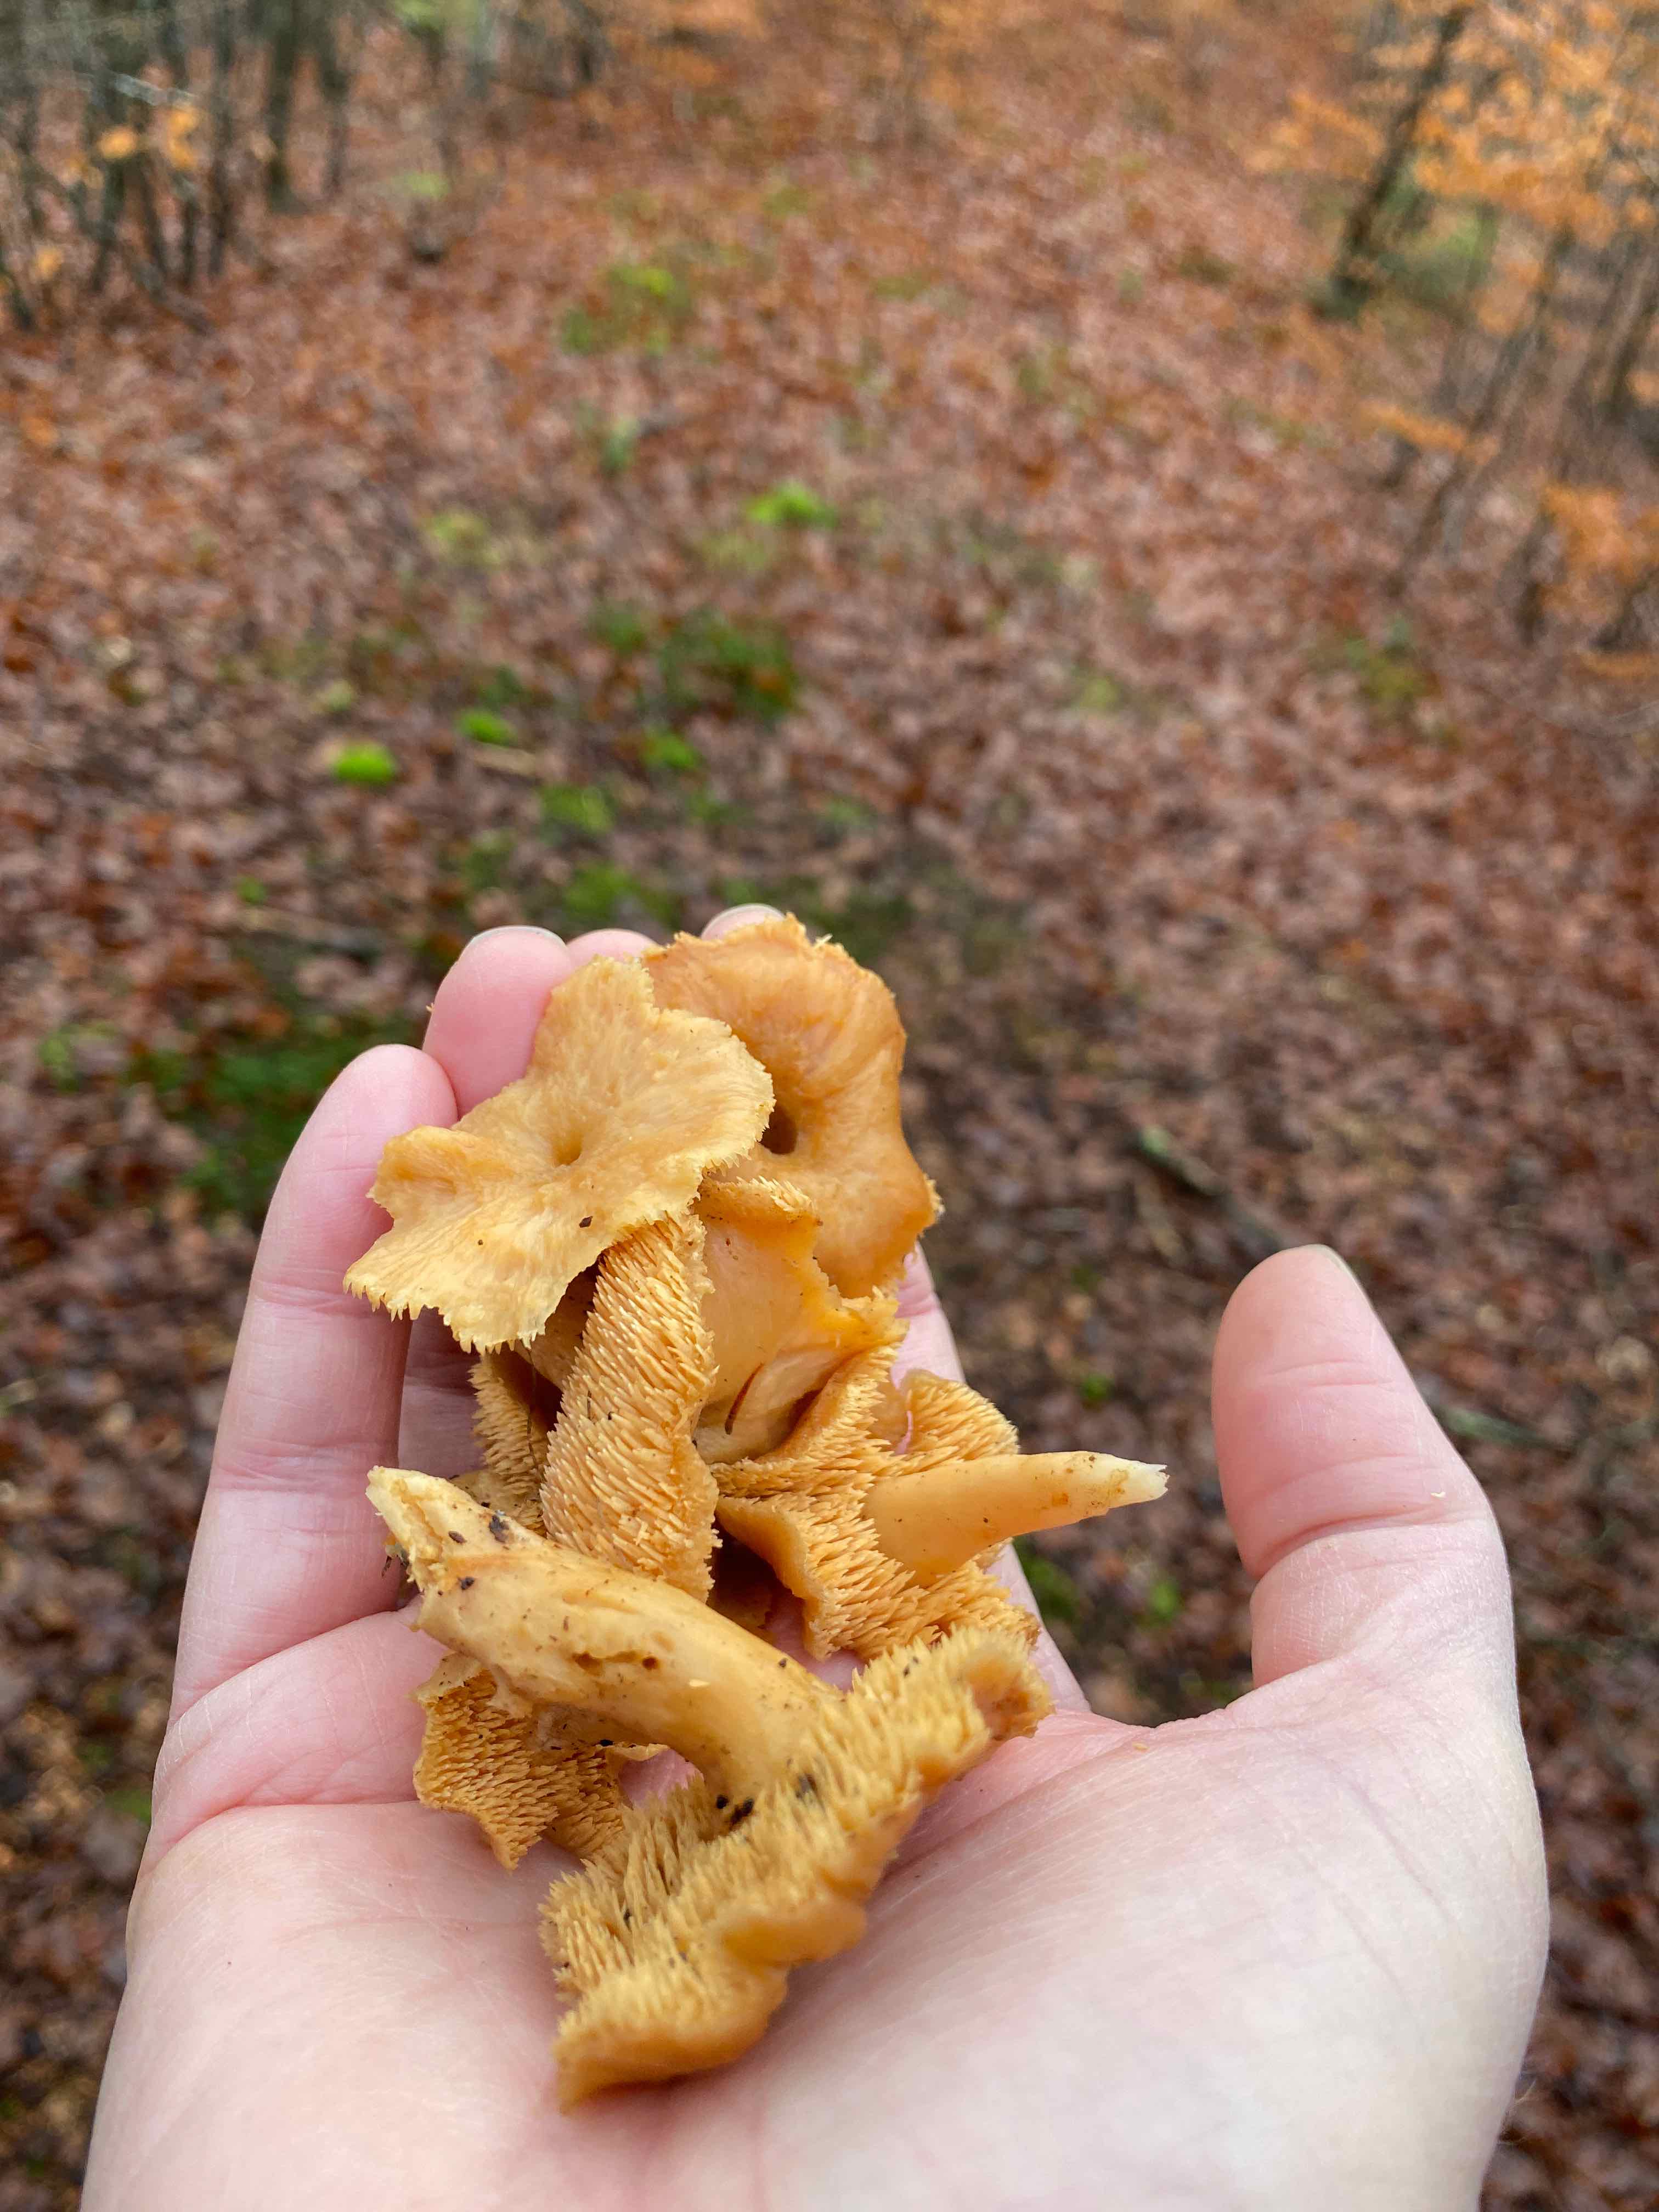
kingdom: Fungi
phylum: Basidiomycota
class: Agaricomycetes
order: Cantharellales
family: Hydnaceae
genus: Hydnum
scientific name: Hydnum
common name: pigsvamp
